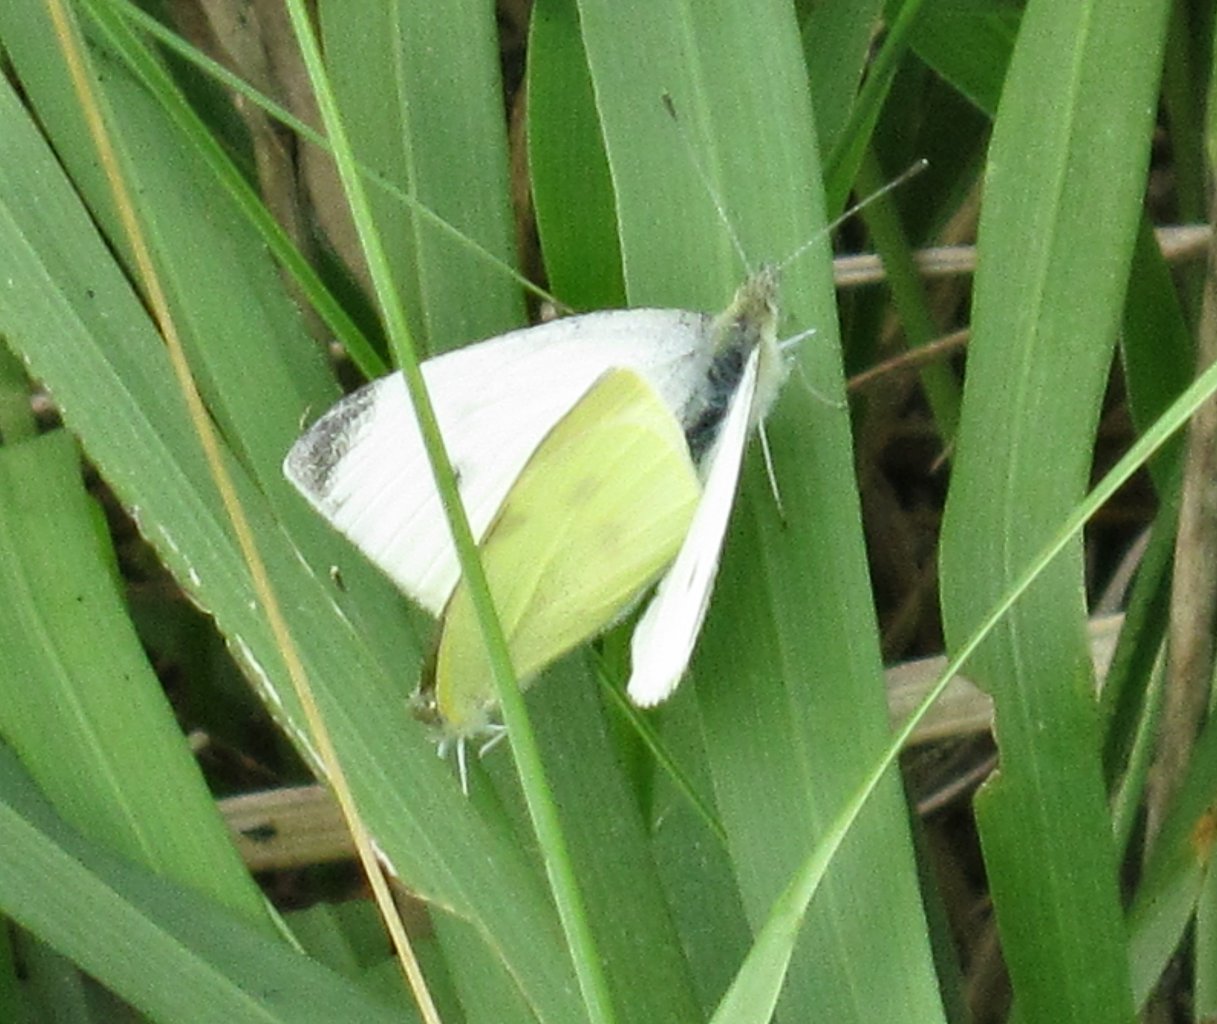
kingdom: Animalia
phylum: Arthropoda
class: Insecta
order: Lepidoptera
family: Pieridae
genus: Pieris
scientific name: Pieris rapae
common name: Cabbage White
